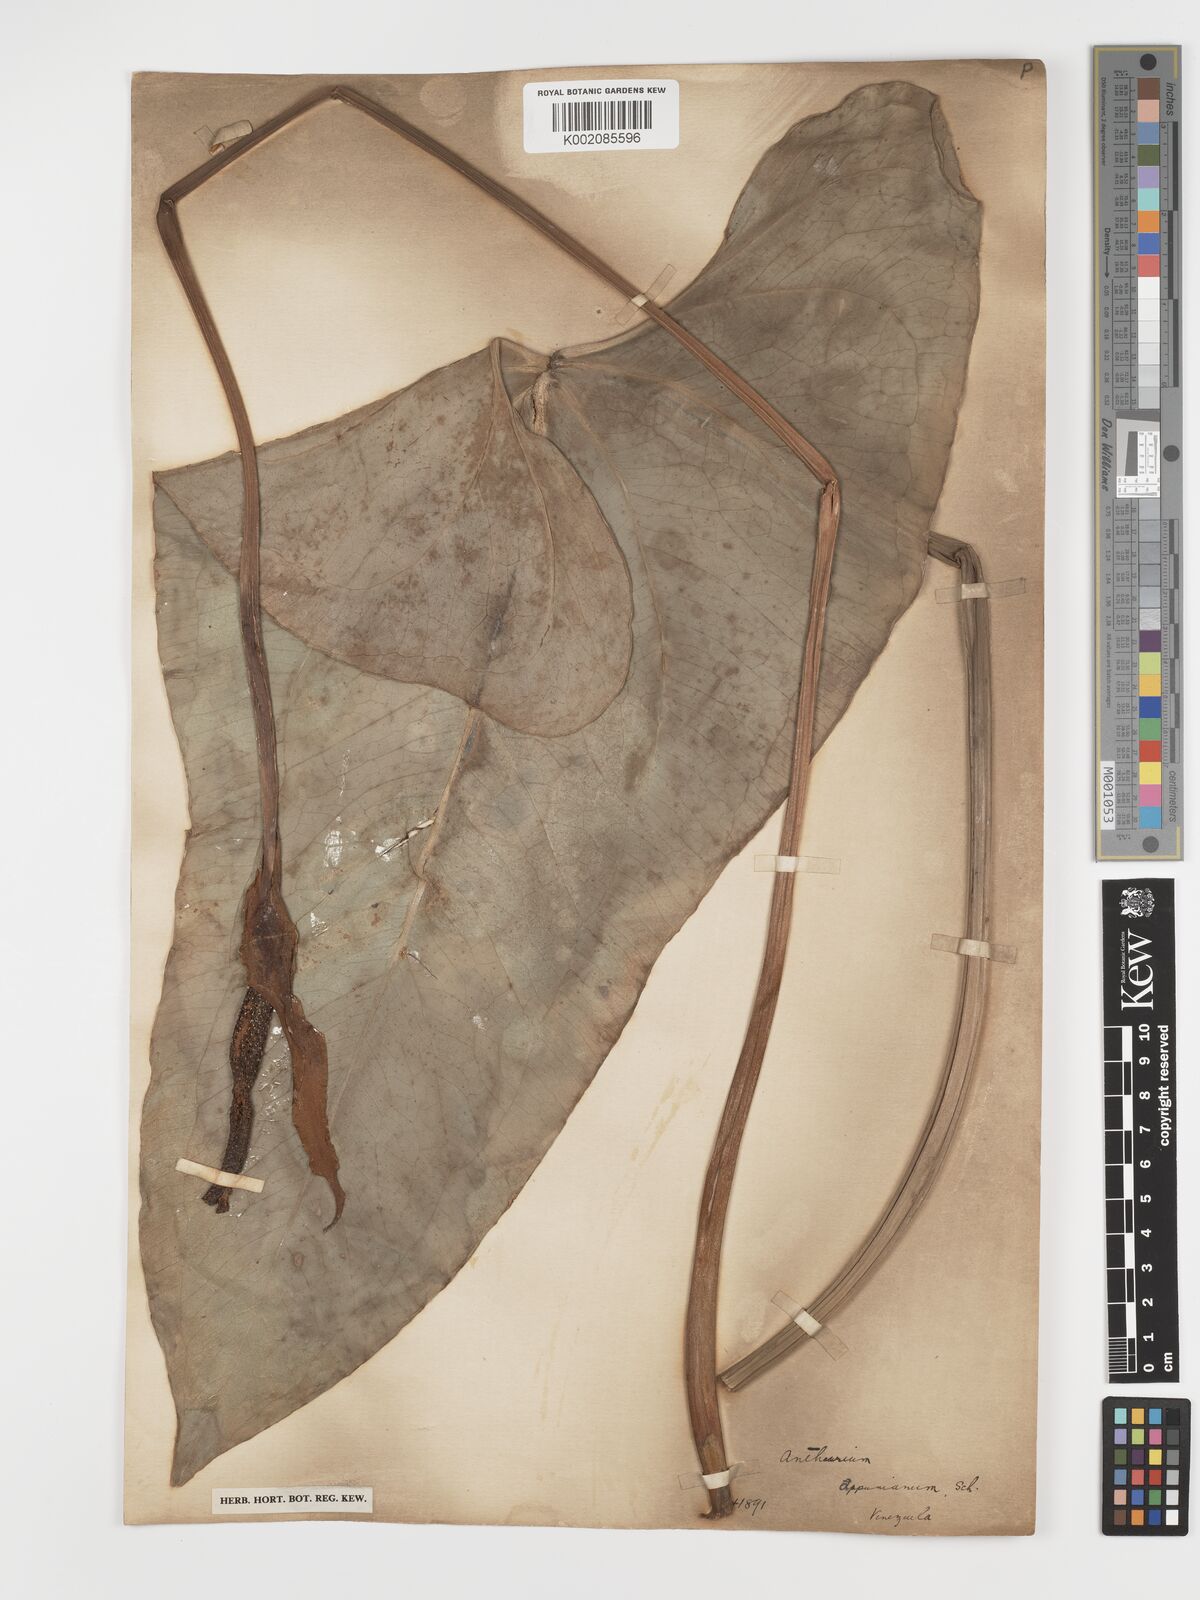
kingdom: Plantae
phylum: Tracheophyta
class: Liliopsida
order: Alismatales
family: Araceae
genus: Anthurium
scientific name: Anthurium cartilagineum
